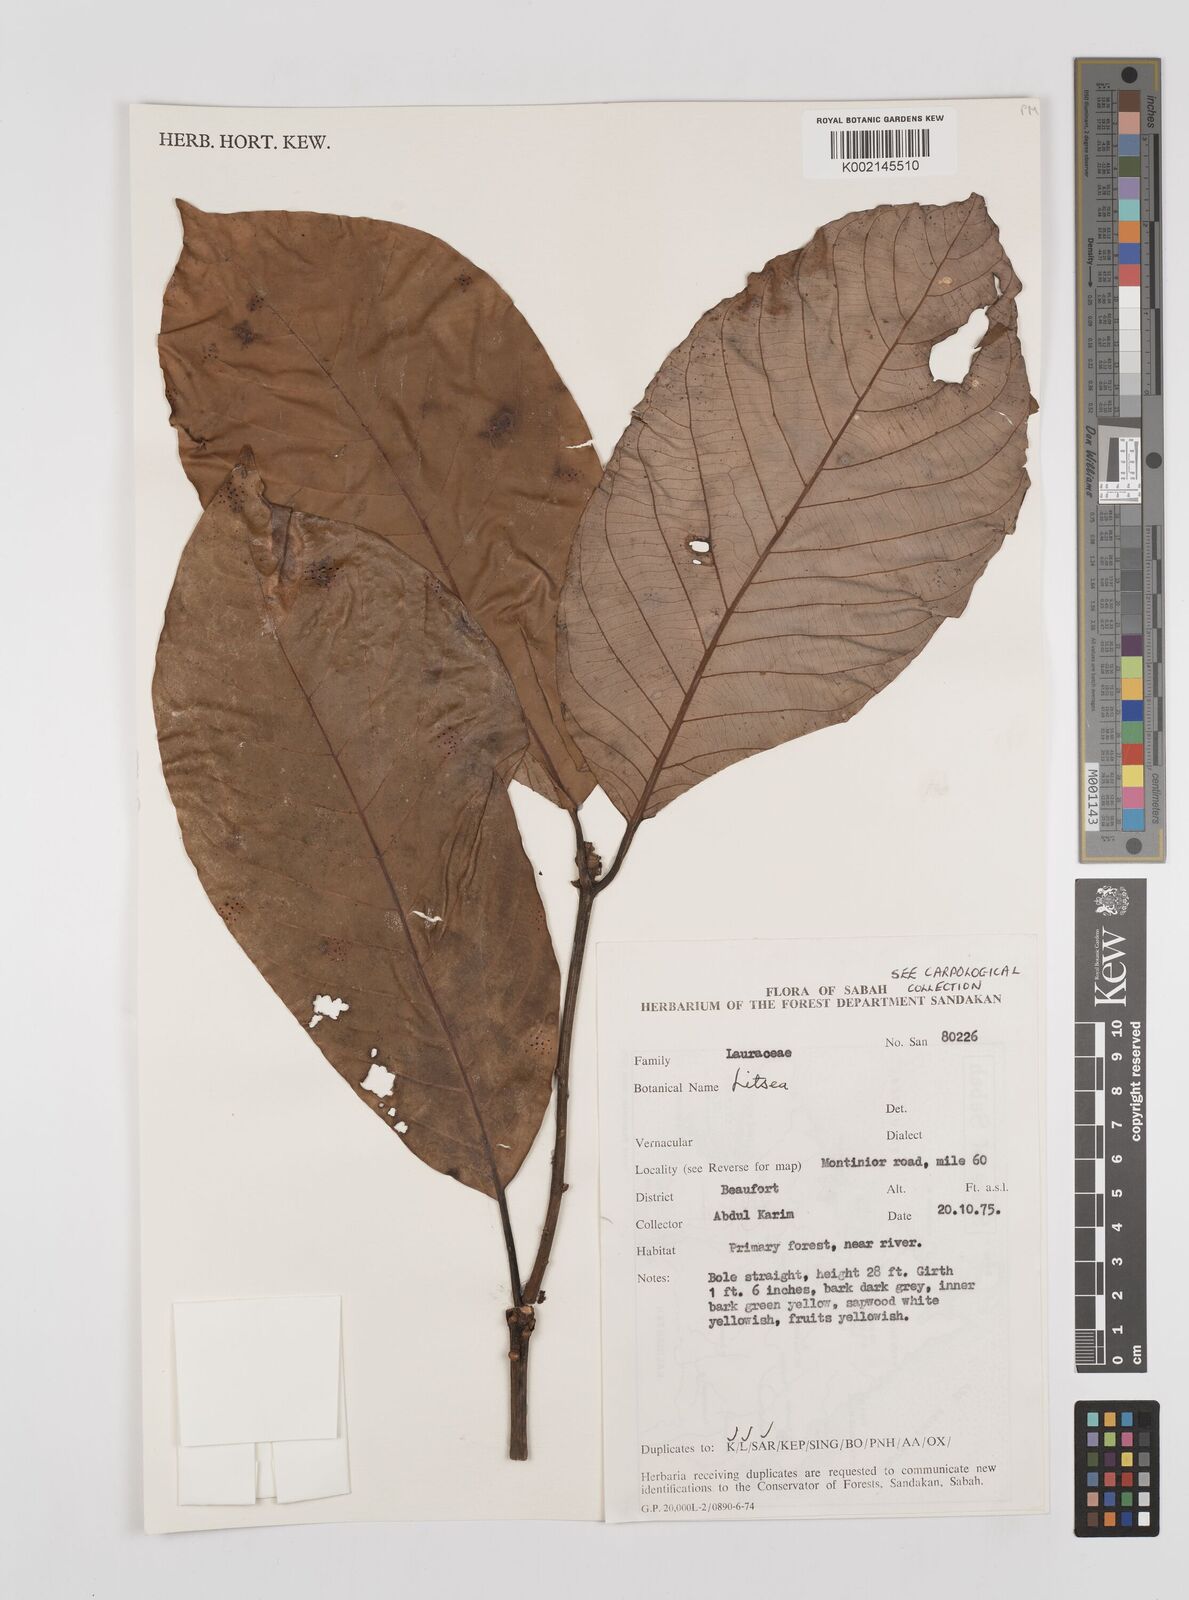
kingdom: Plantae
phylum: Tracheophyta
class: Magnoliopsida
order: Laurales
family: Lauraceae
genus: Litsea
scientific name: Litsea
